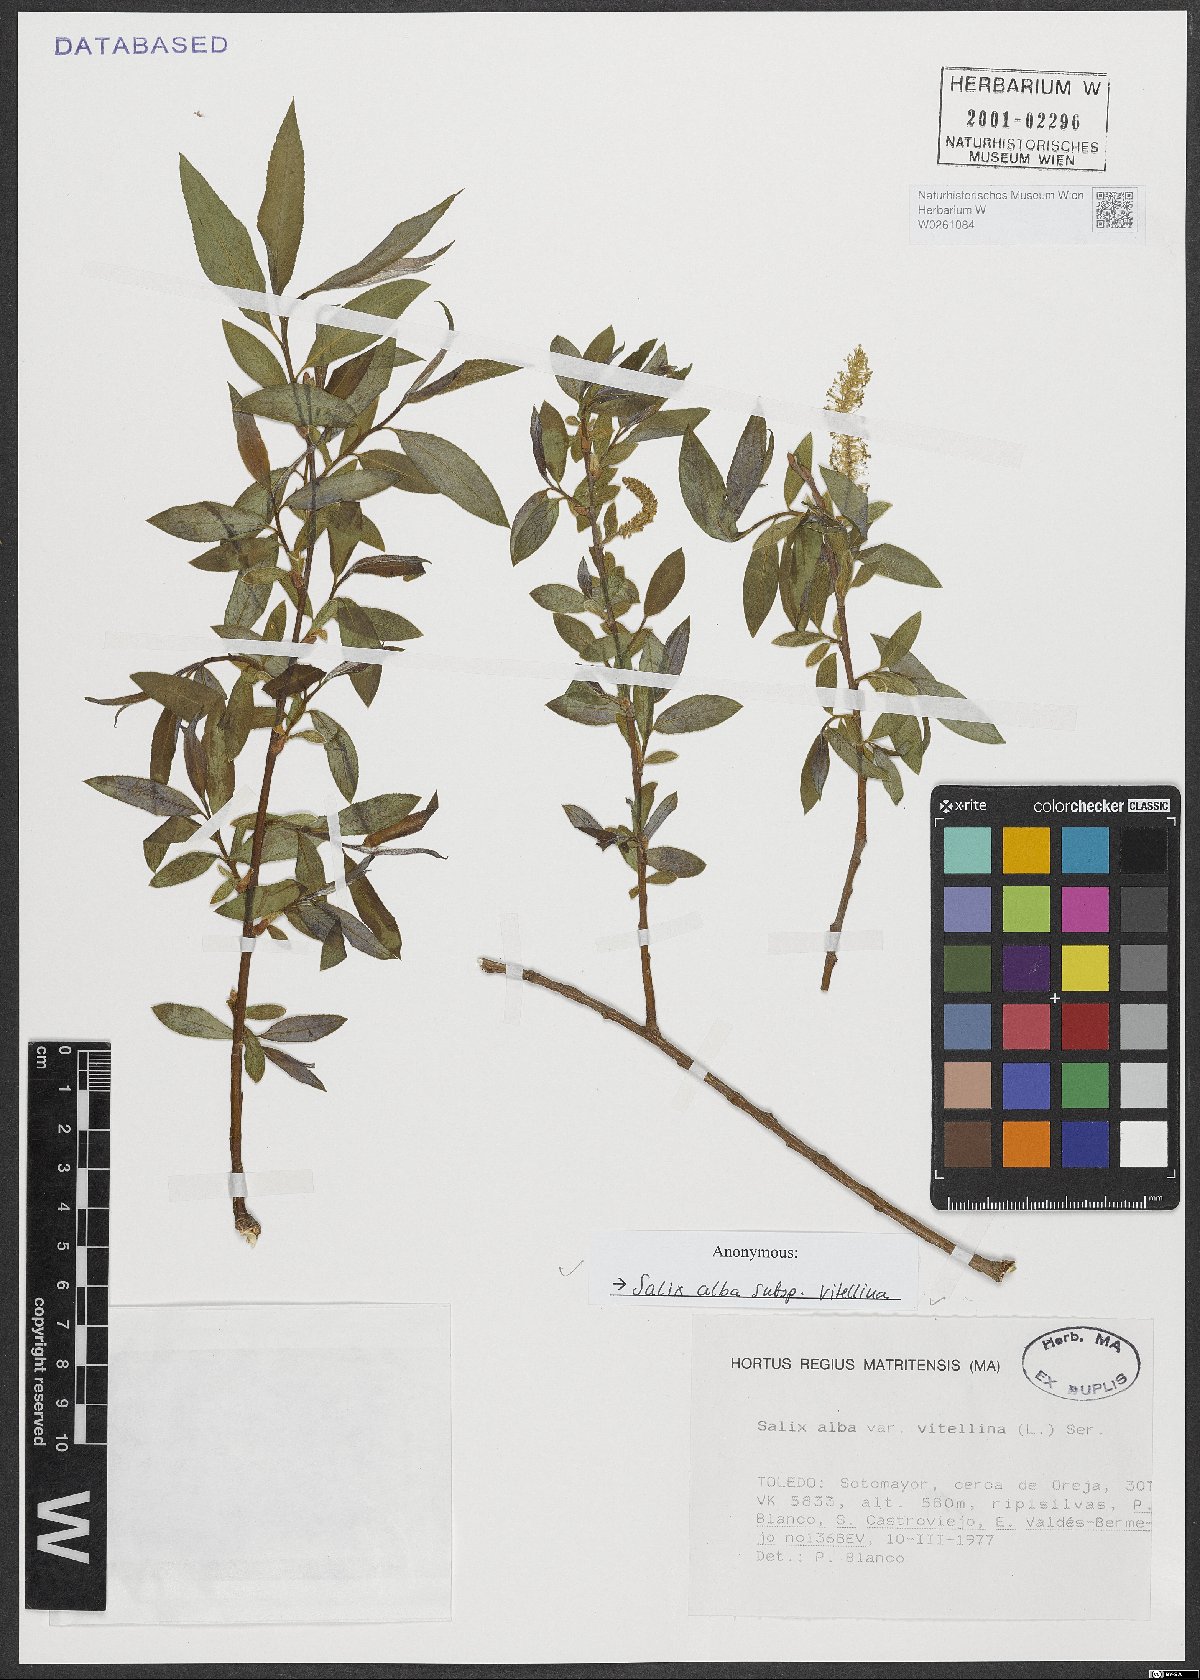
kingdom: Plantae
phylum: Tracheophyta
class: Magnoliopsida
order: Malpighiales
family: Salicaceae
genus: Salix
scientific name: Salix alba
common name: White willow
